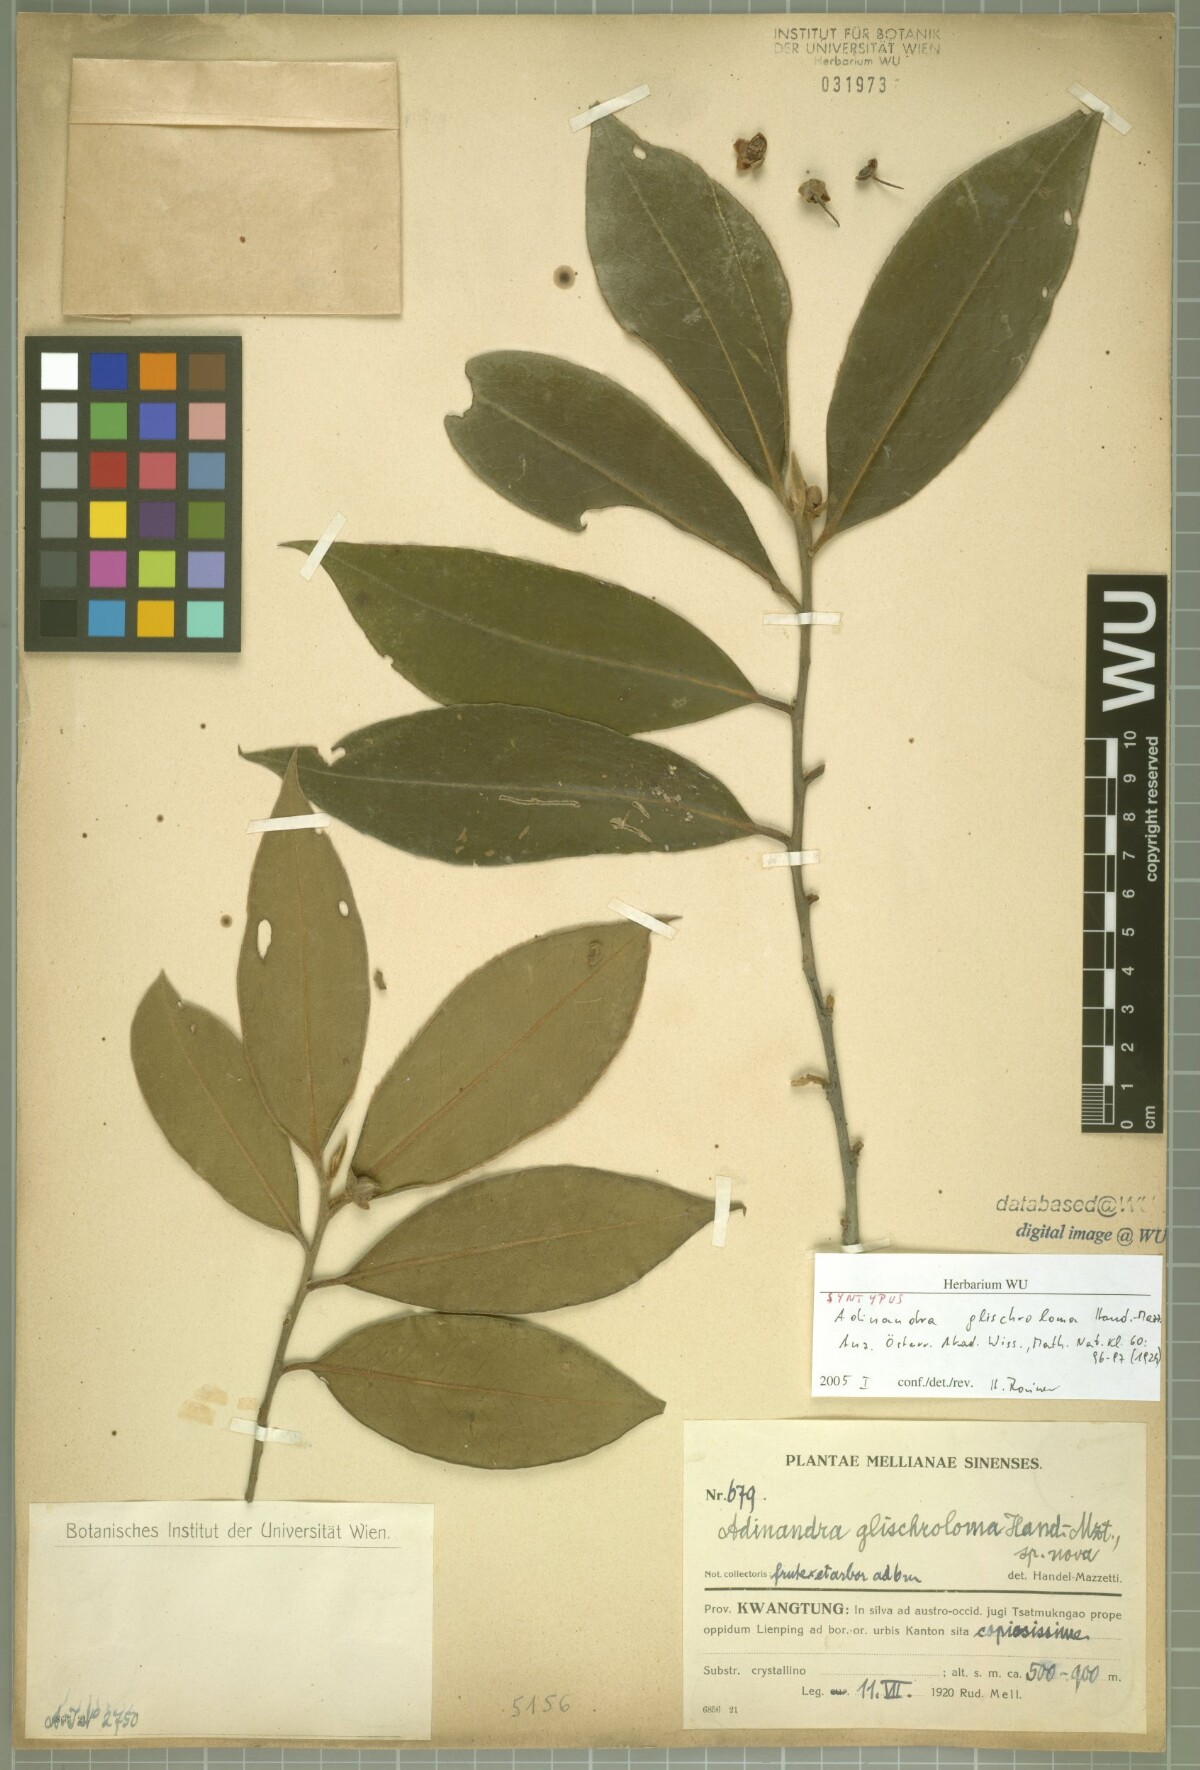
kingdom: Plantae
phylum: Tracheophyta
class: Magnoliopsida
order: Ericales
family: Pentaphylacaceae
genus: Adinandra
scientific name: Adinandra glischroloma
